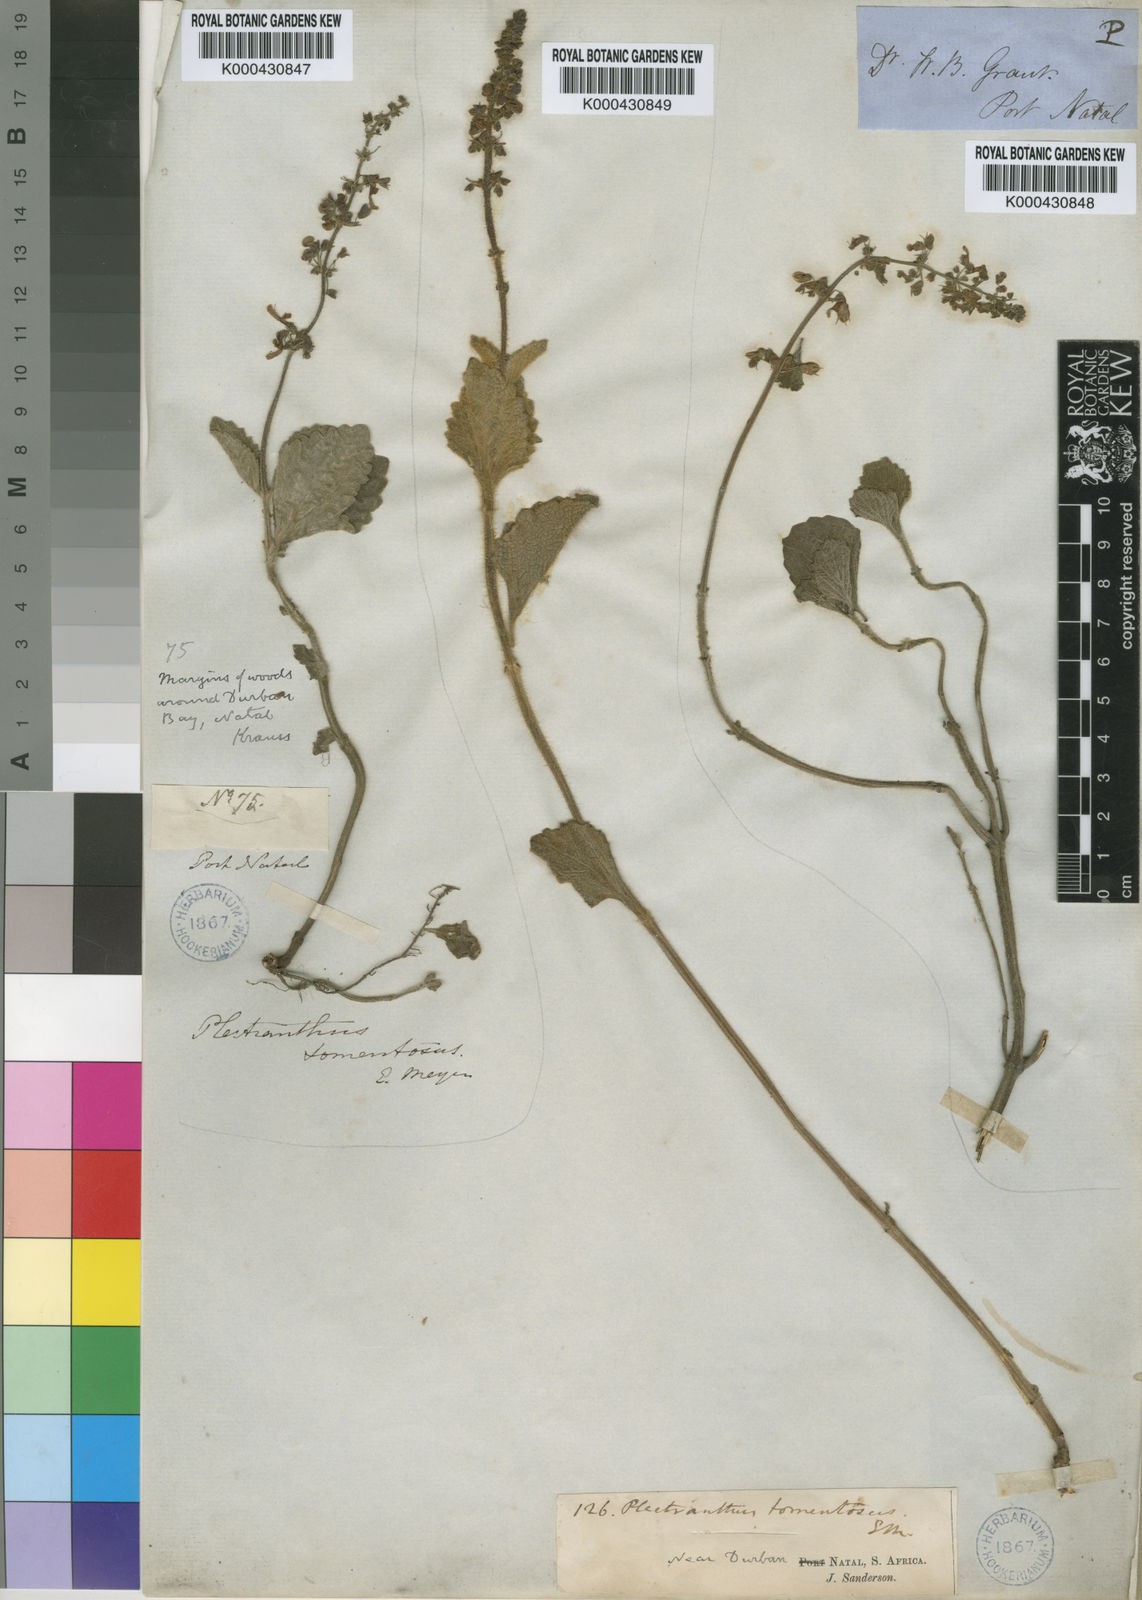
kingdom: Plantae
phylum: Tracheophyta
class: Magnoliopsida
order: Lamiales
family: Lamiaceae
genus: Coleus
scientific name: Coleus hadiensis
